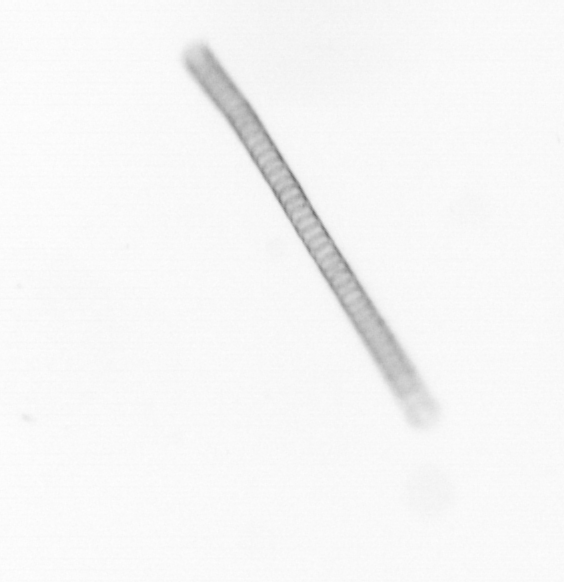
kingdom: Chromista
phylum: Ochrophyta
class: Bacillariophyceae
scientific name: Bacillariophyceae
